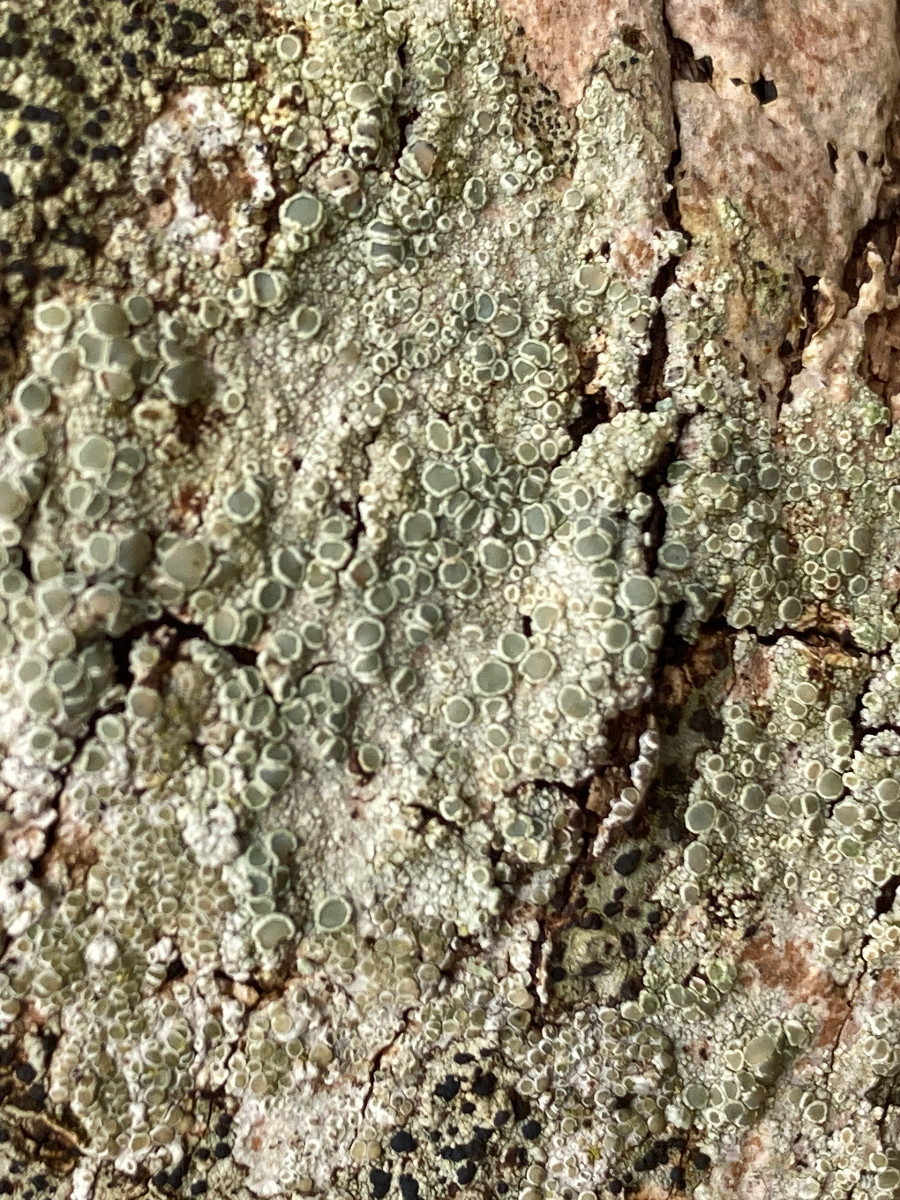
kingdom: Fungi
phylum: Ascomycota
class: Lecanoromycetes
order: Lecanorales
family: Lecanoraceae
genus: Lecanora
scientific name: Lecanora chlarotera
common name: brun kantskivelav
